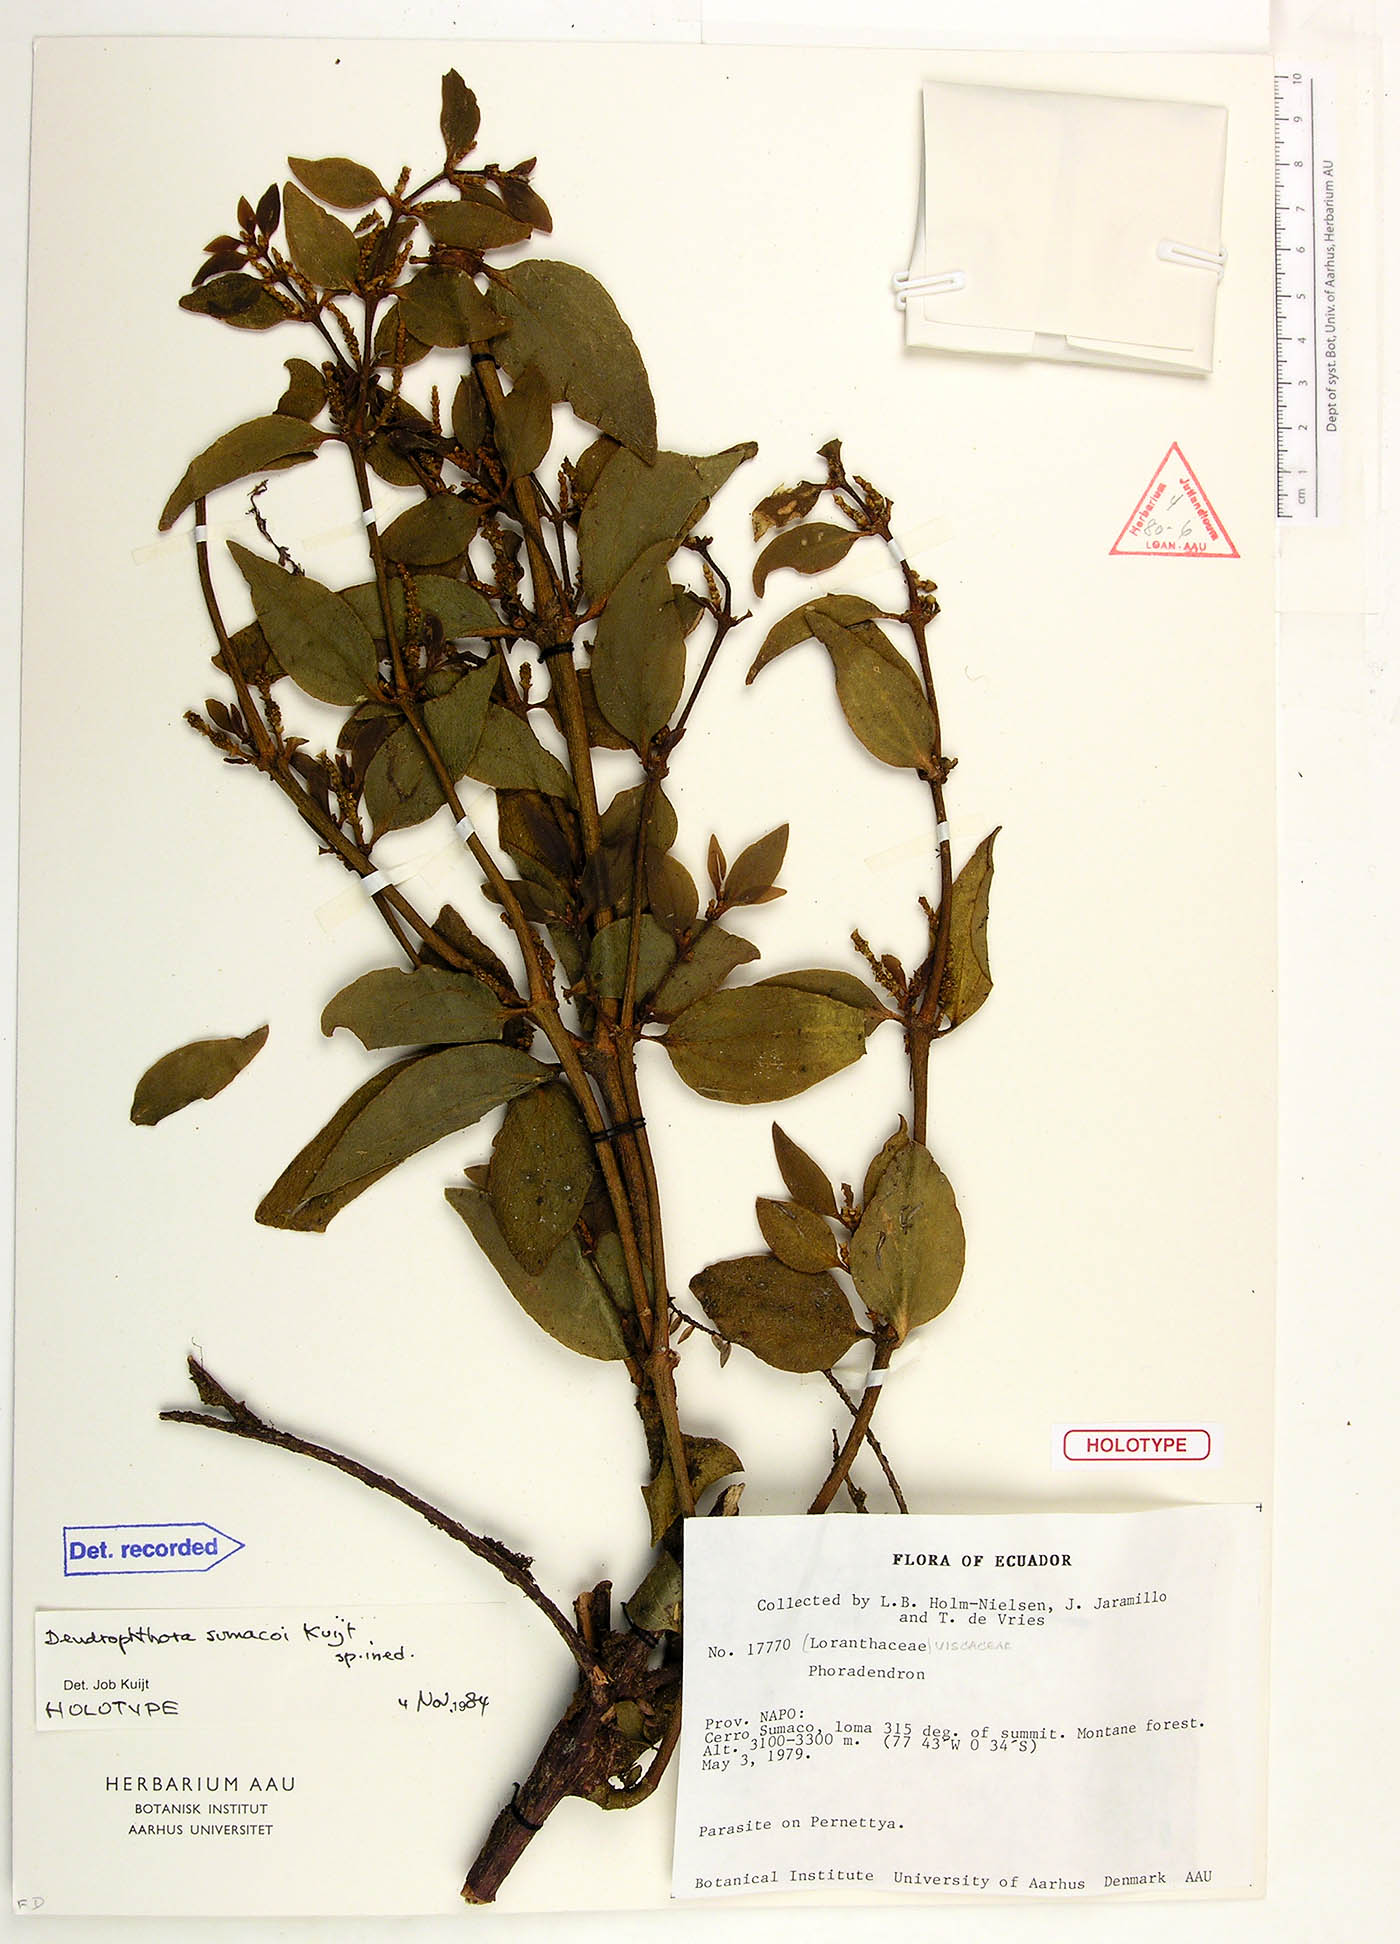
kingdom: Plantae
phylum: Tracheophyta
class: Magnoliopsida
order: Santalales
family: Viscaceae
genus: Dendrophthora
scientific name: Dendrophthora sumacoi
